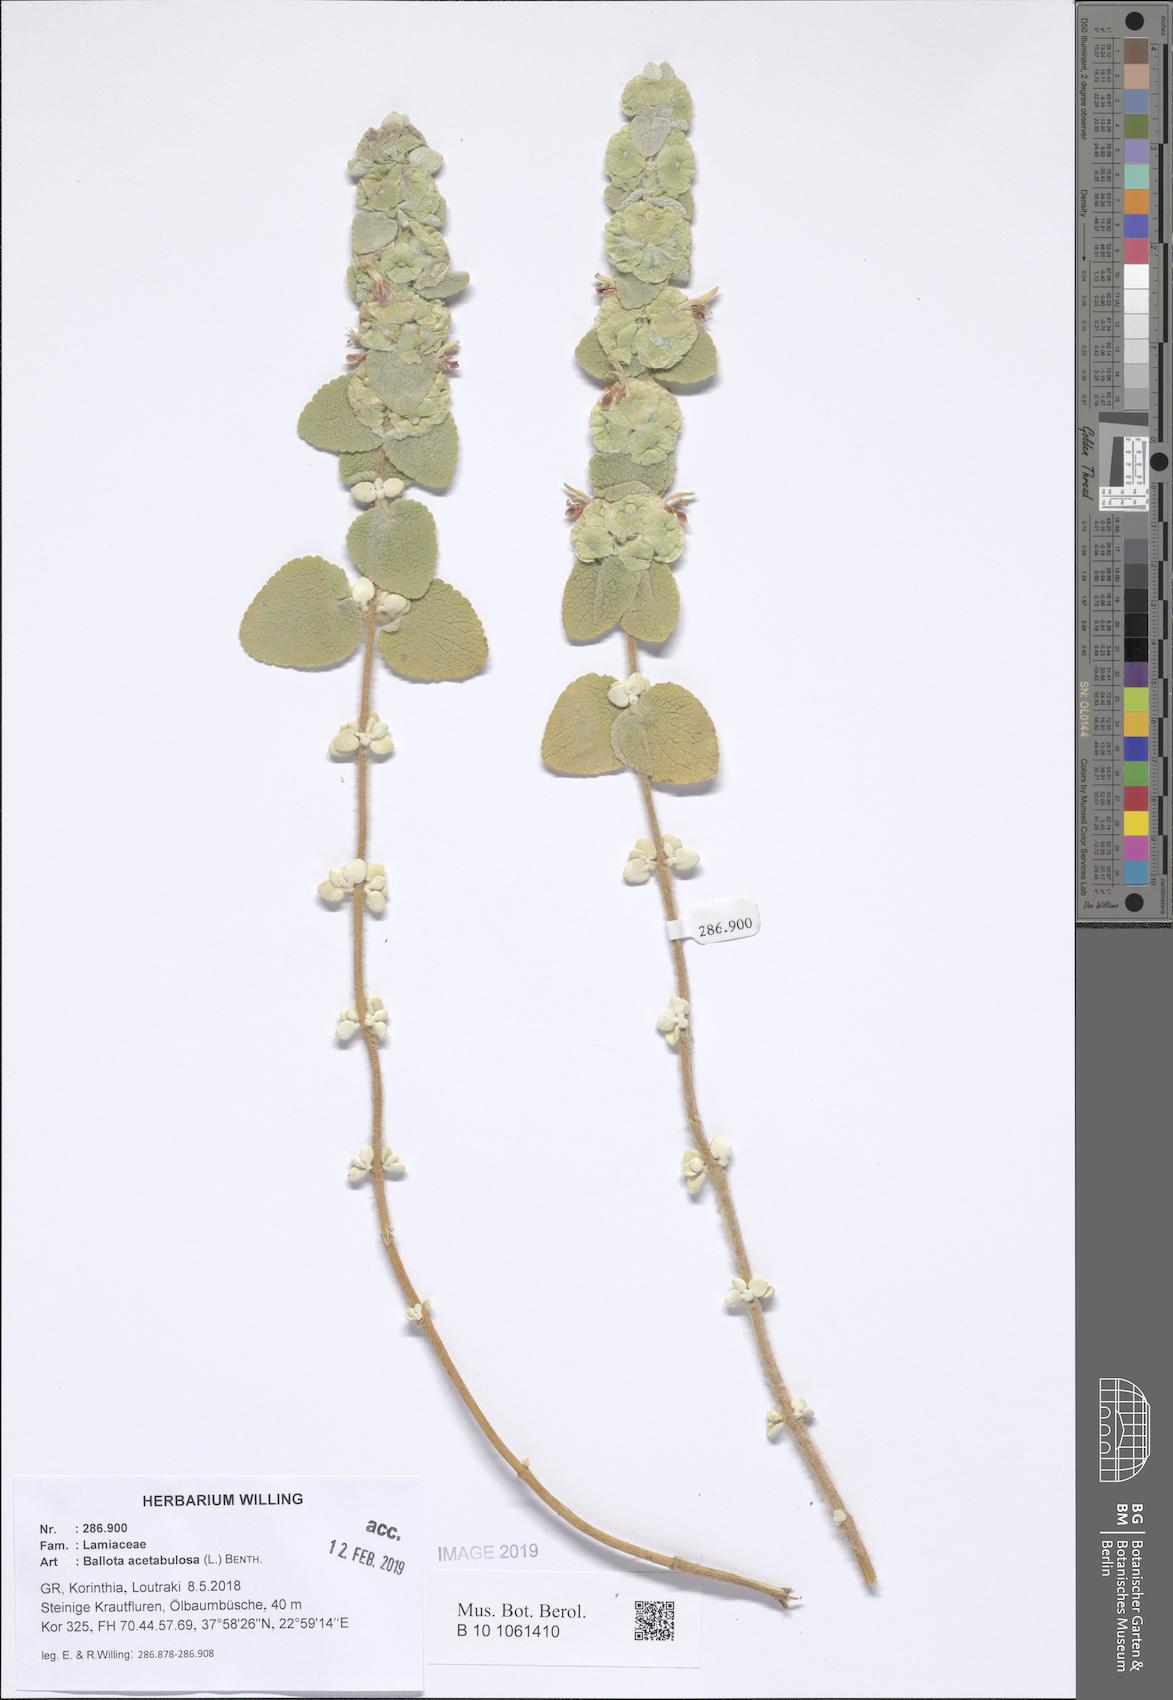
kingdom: Plantae
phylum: Tracheophyta
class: Magnoliopsida
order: Lamiales
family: Lamiaceae
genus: Pseudodictamnus
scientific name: Pseudodictamnus acetabulosus
